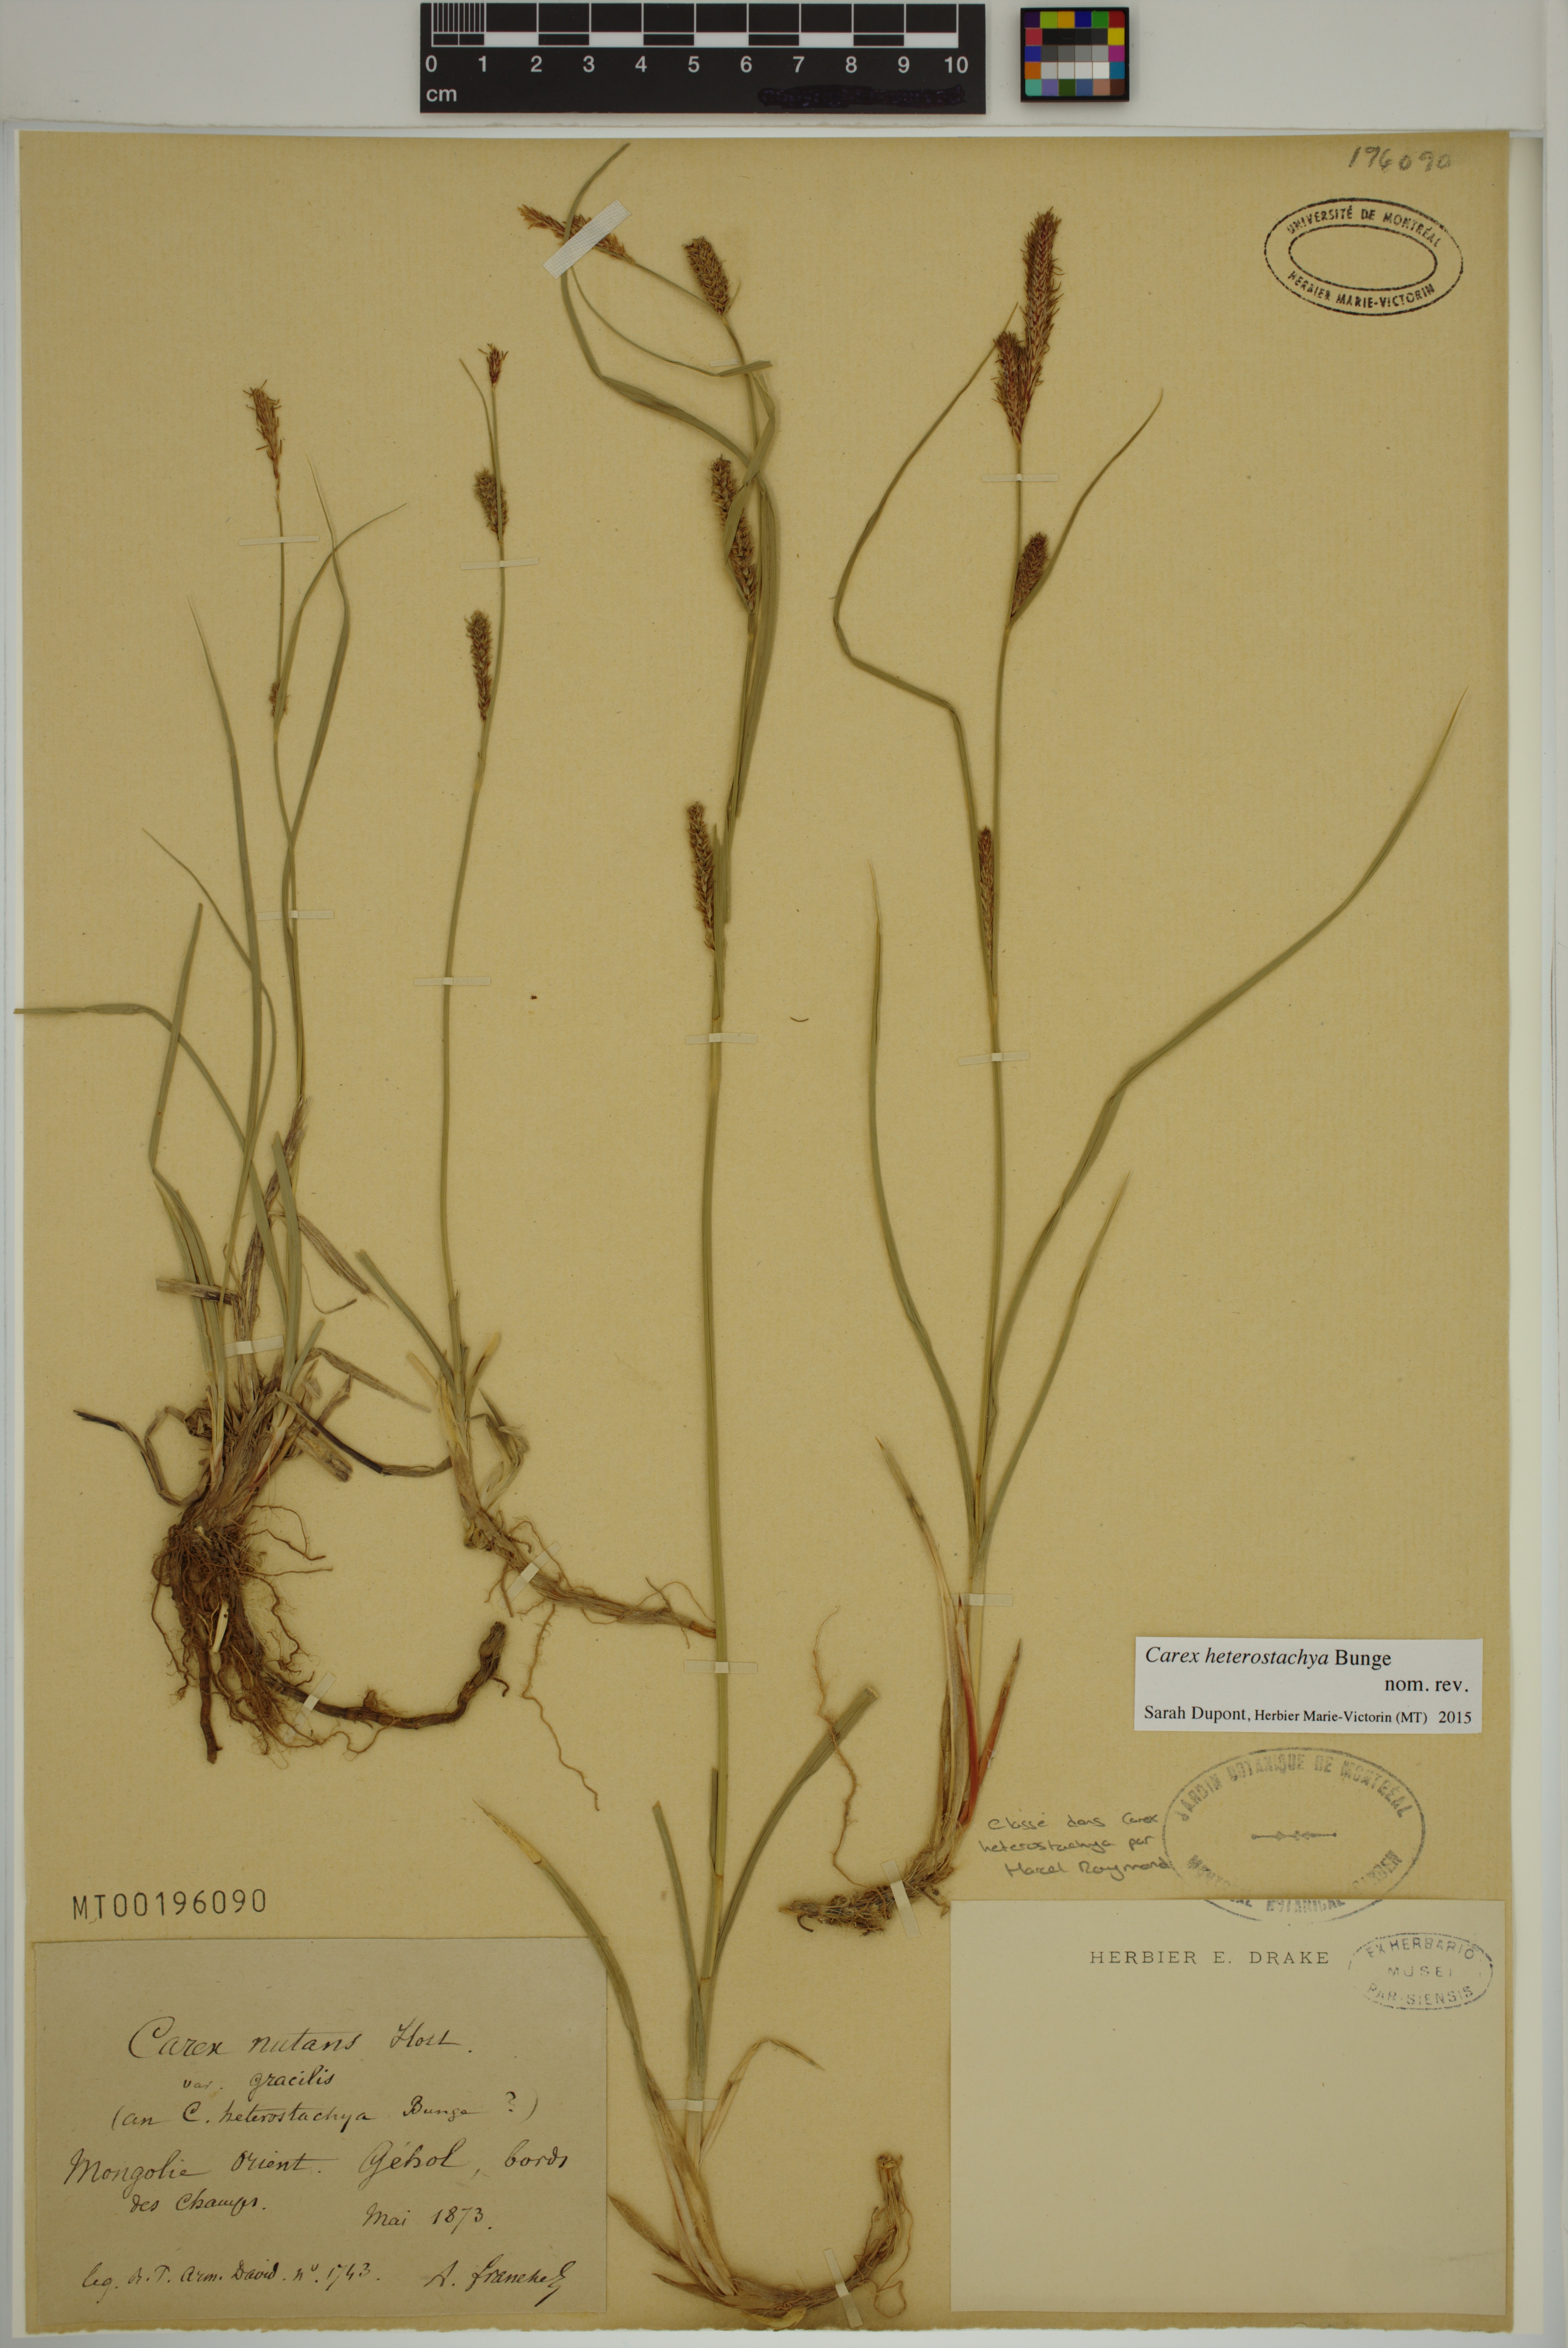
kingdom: Plantae
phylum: Tracheophyta
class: Liliopsida
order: Poales
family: Cyperaceae
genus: Carex
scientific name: Carex heterostachya
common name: Different-spike sedge
